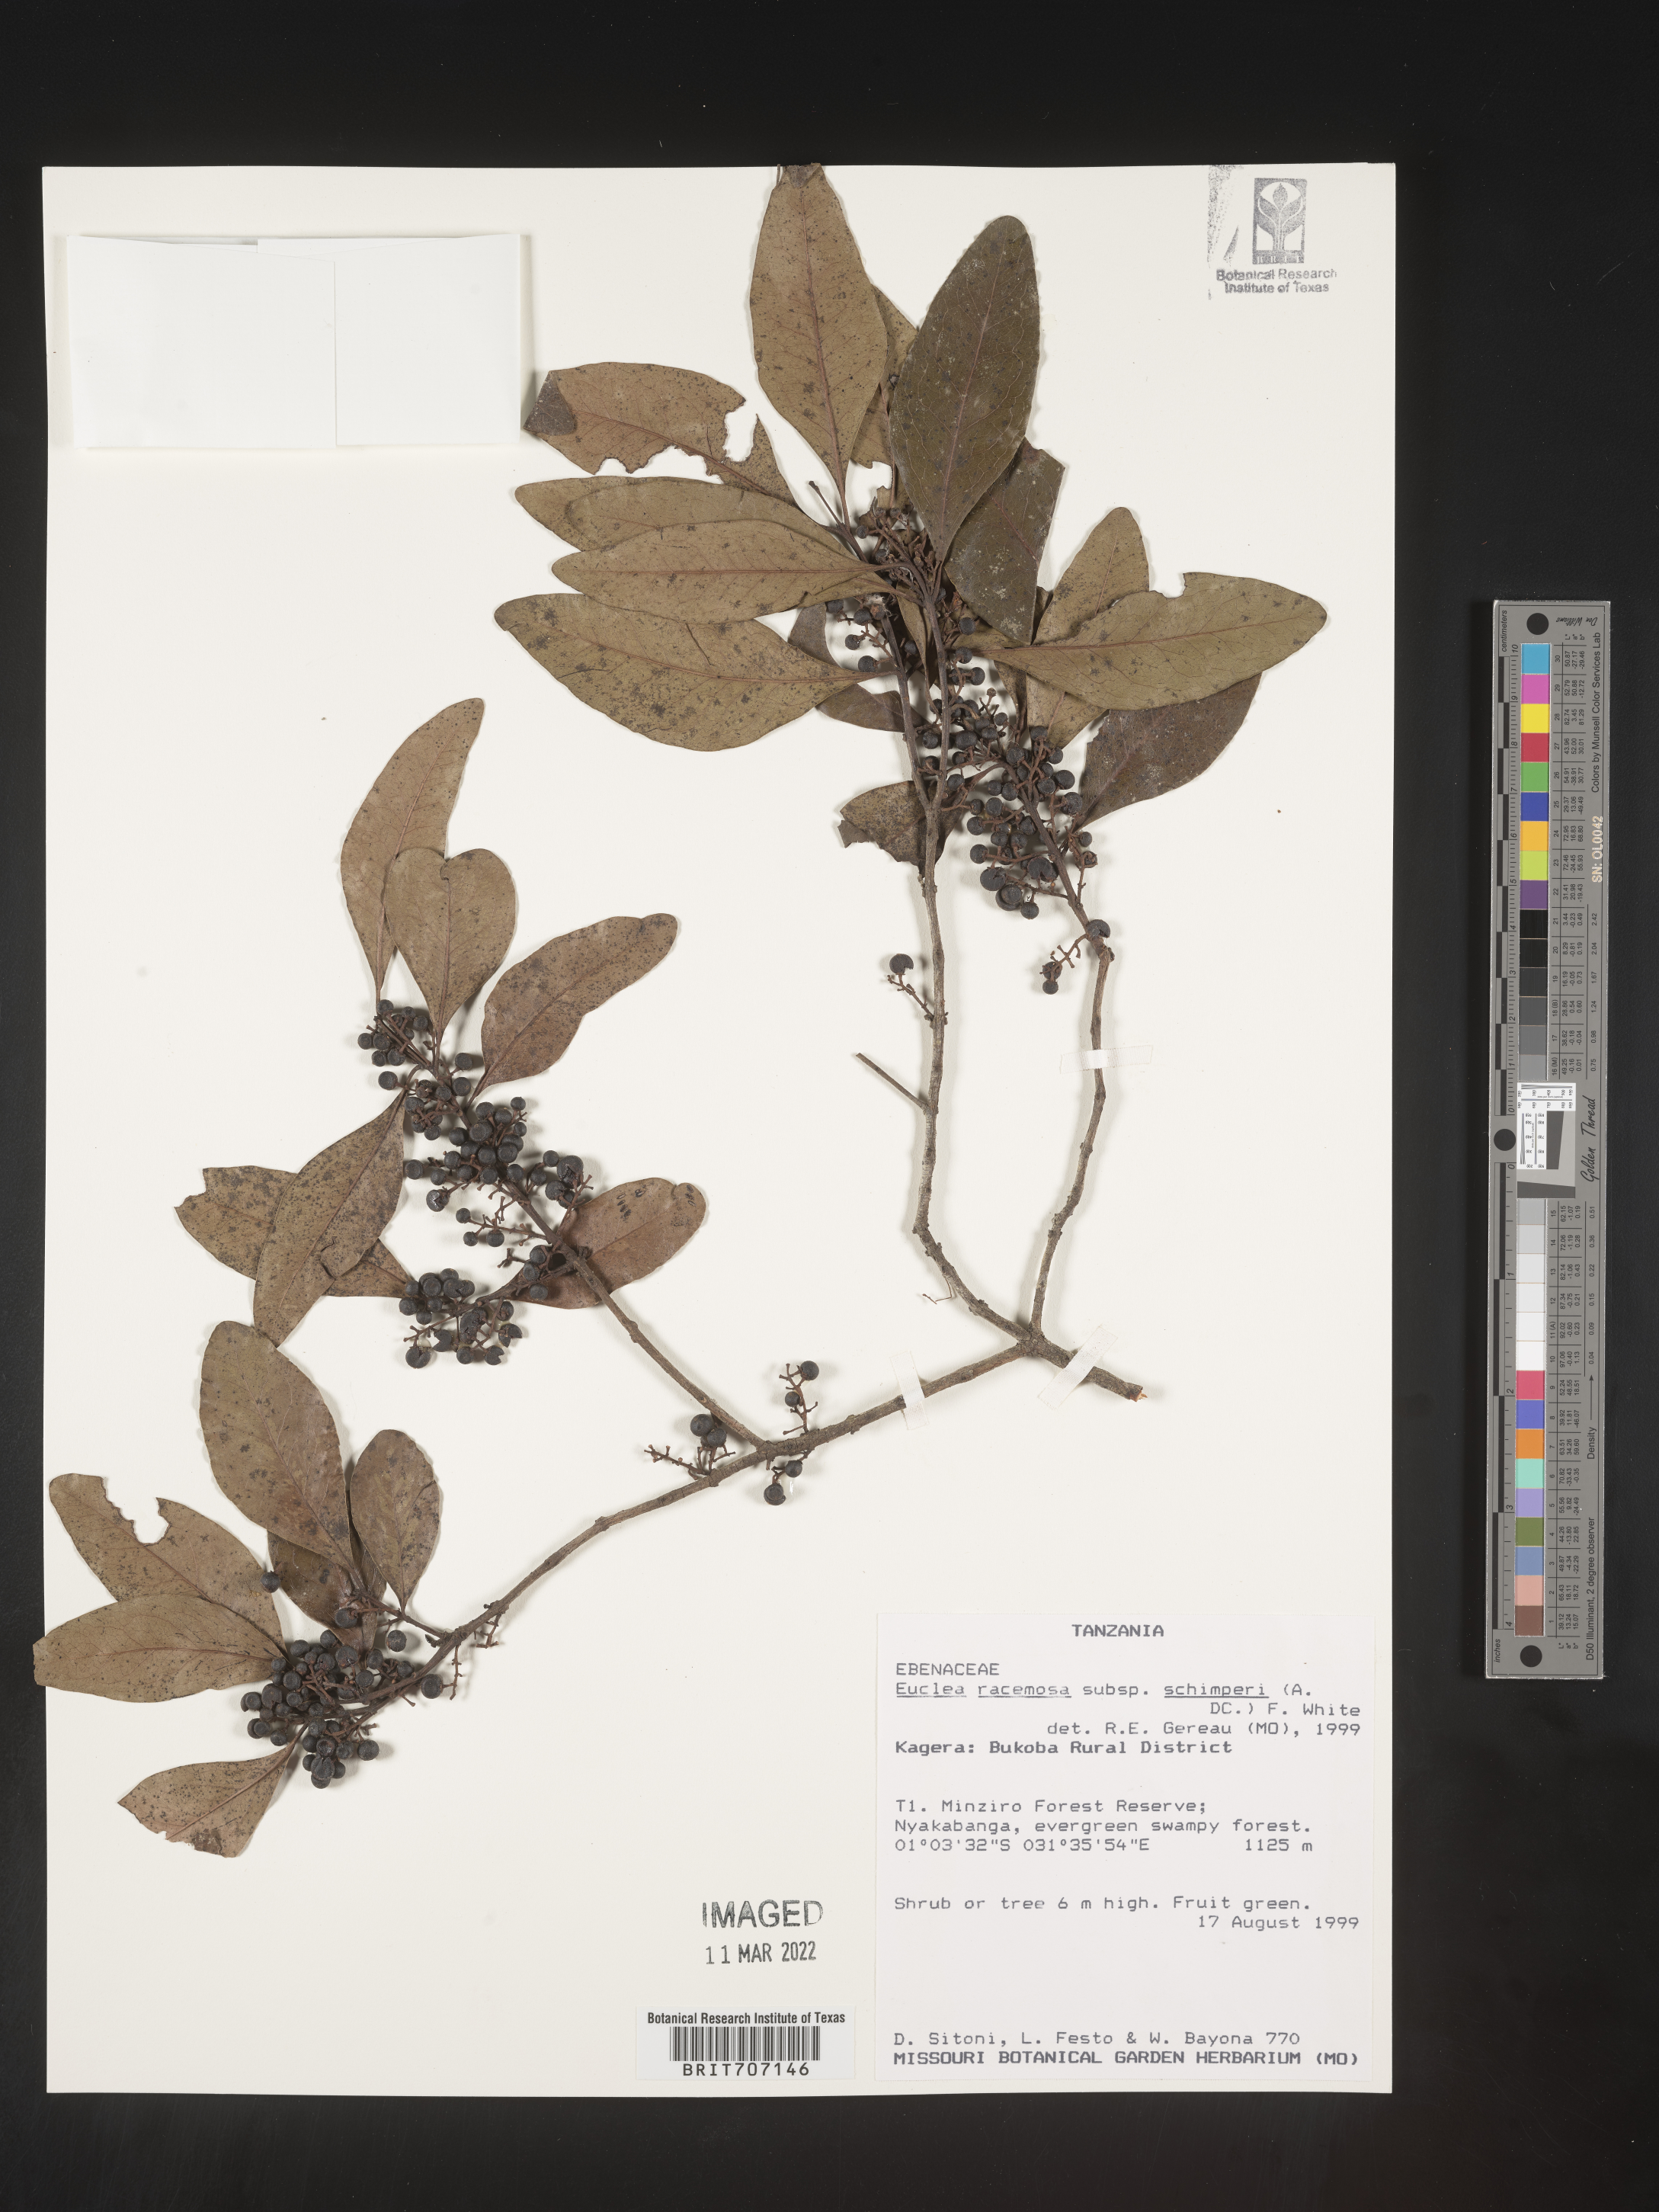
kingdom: Plantae
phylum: Tracheophyta
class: Magnoliopsida
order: Ericales
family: Ebenaceae
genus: Euclea
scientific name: Euclea
